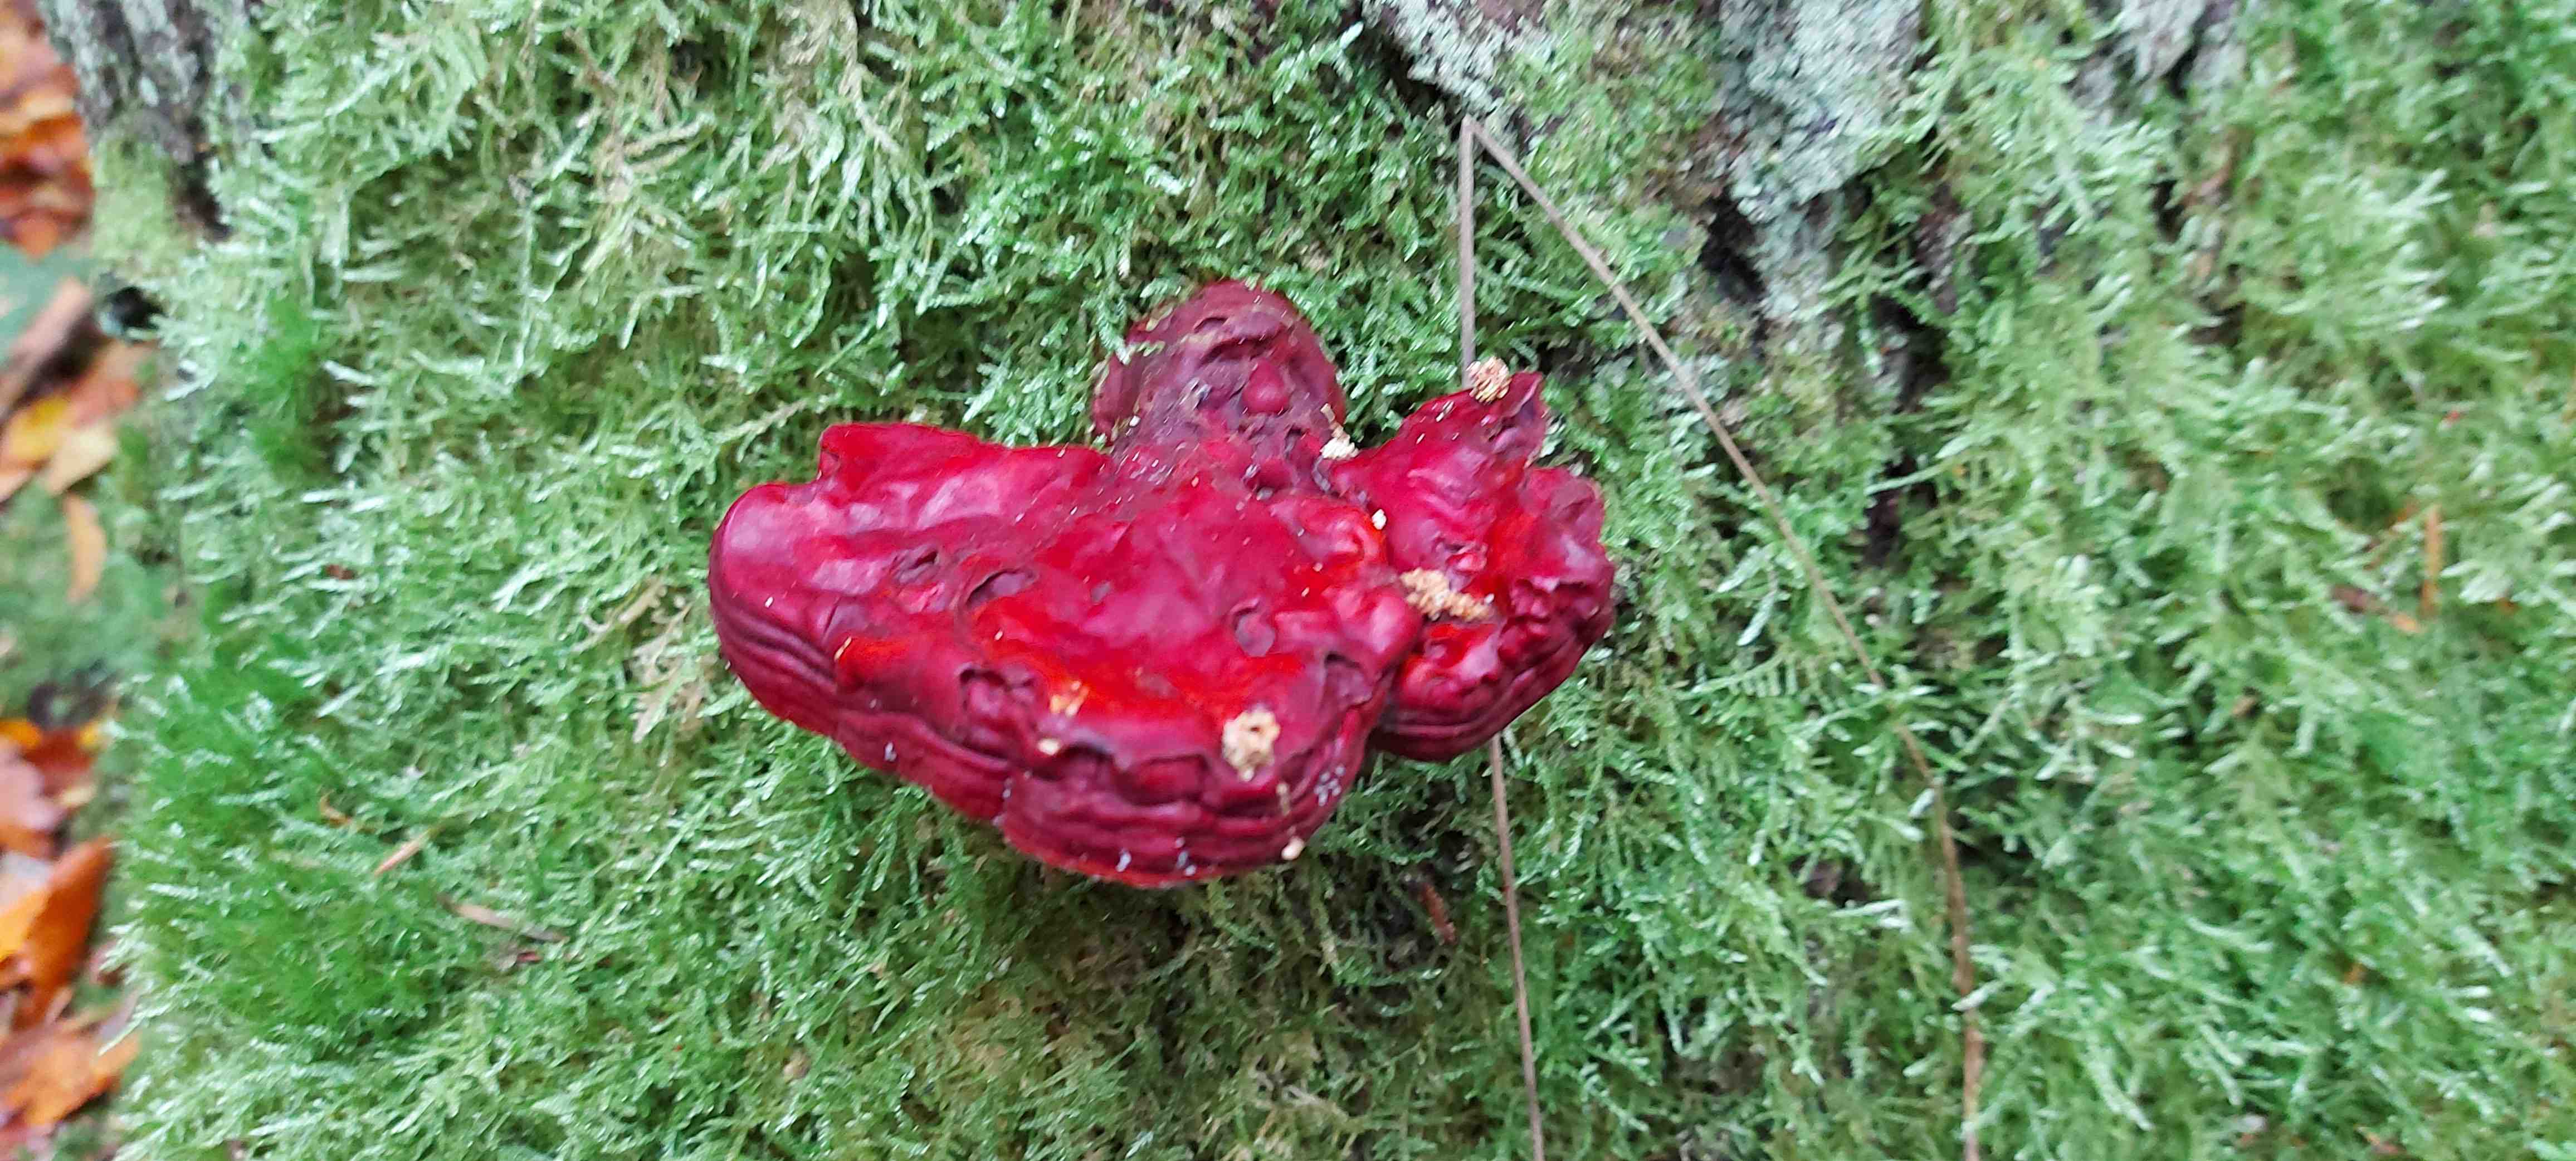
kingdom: Fungi
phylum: Basidiomycota
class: Agaricomycetes
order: Polyporales
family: Polyporaceae
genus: Ganoderma
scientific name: Ganoderma lucidum
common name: skinnende lakporesvamp
